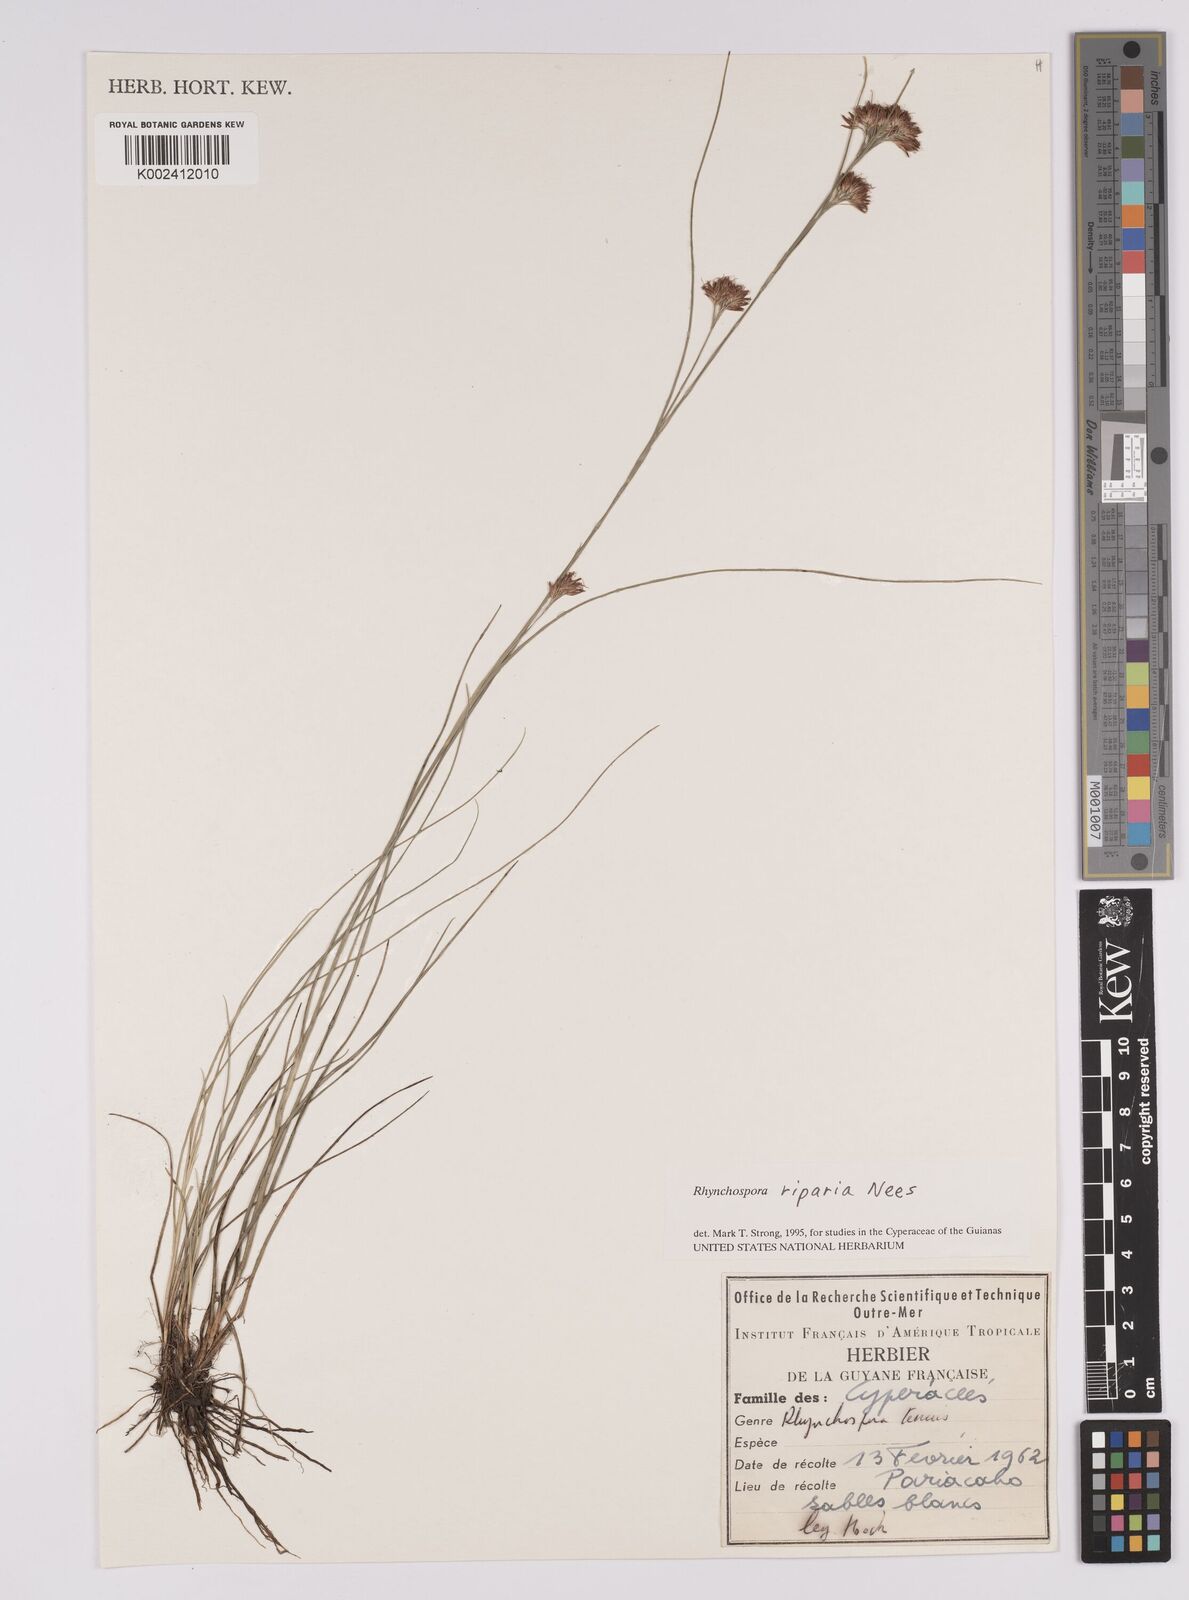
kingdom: Plantae
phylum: Tracheophyta
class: Liliopsida
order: Poales
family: Cyperaceae
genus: Rhynchospora
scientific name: Rhynchospora riparia
